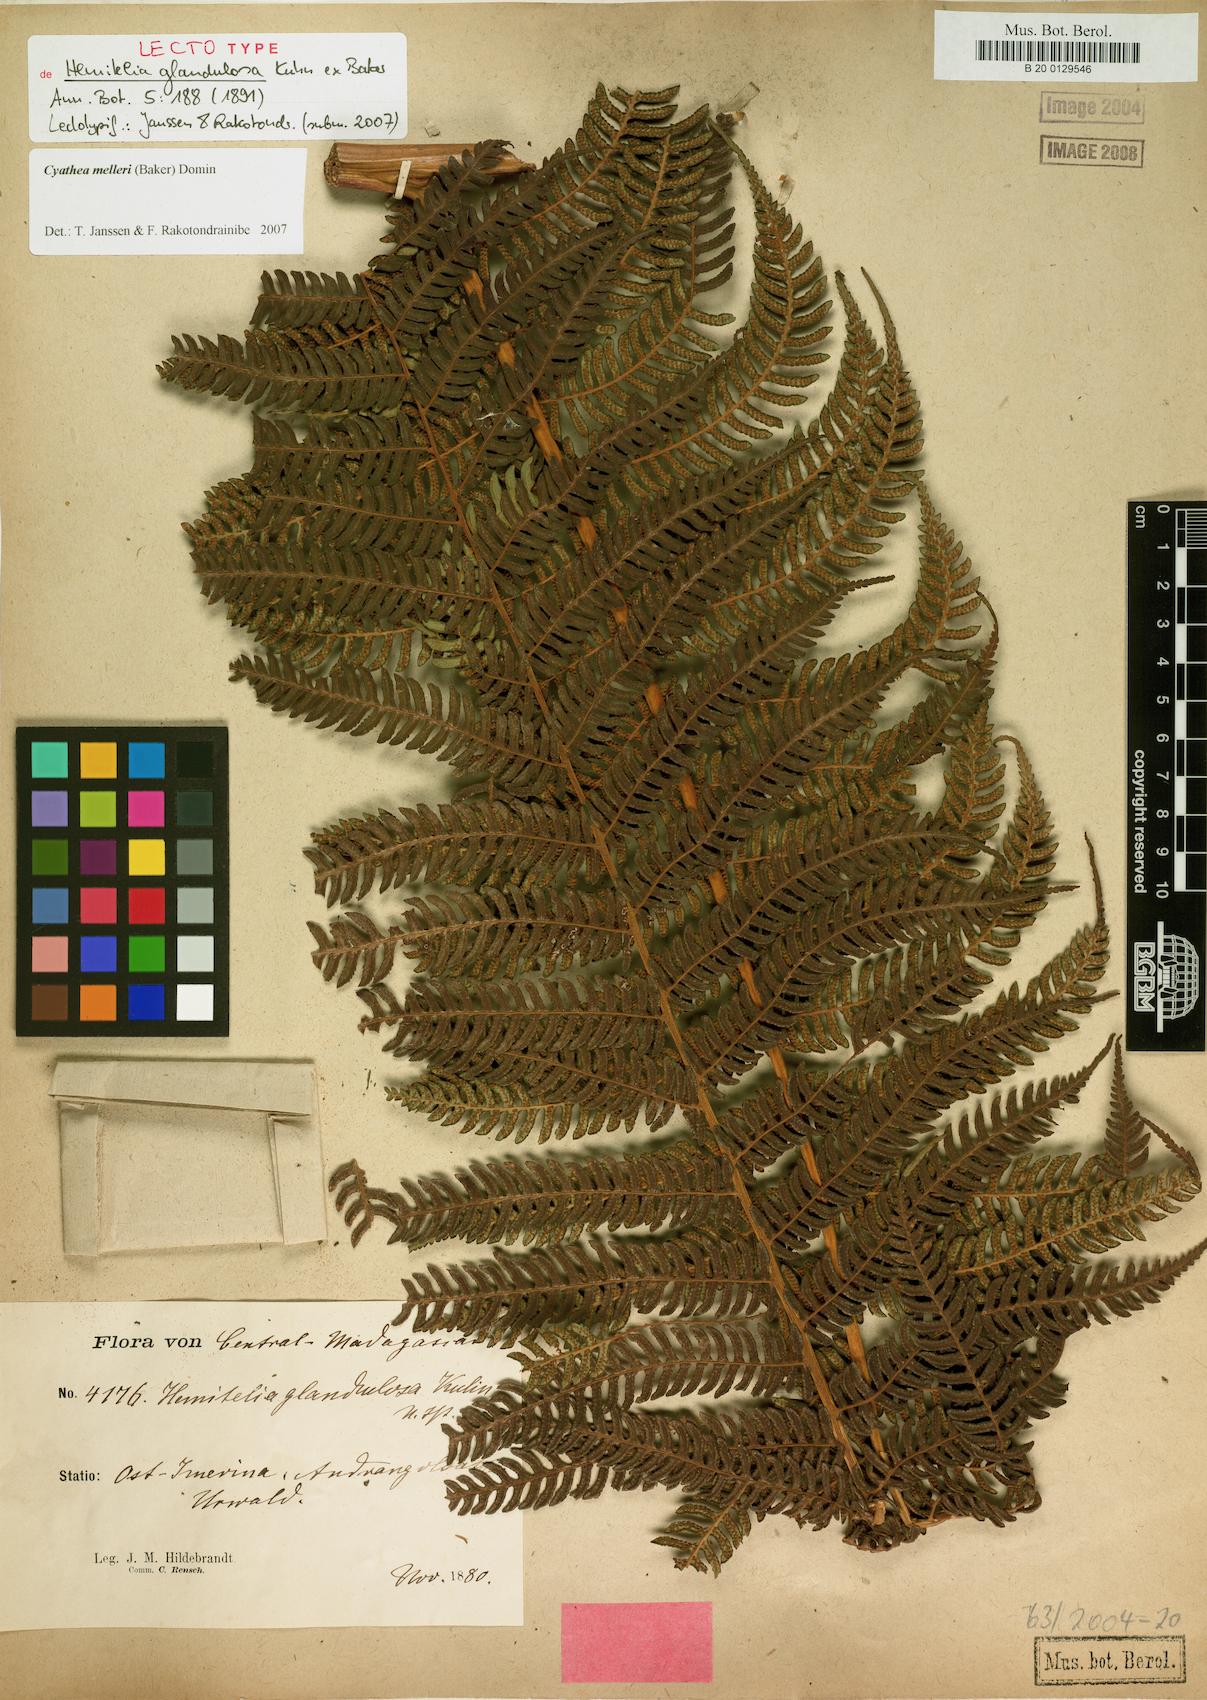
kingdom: Plantae
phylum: Tracheophyta
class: Polypodiopsida
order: Cyatheales
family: Cyatheaceae
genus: Alsophila
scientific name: Alsophila melleri
